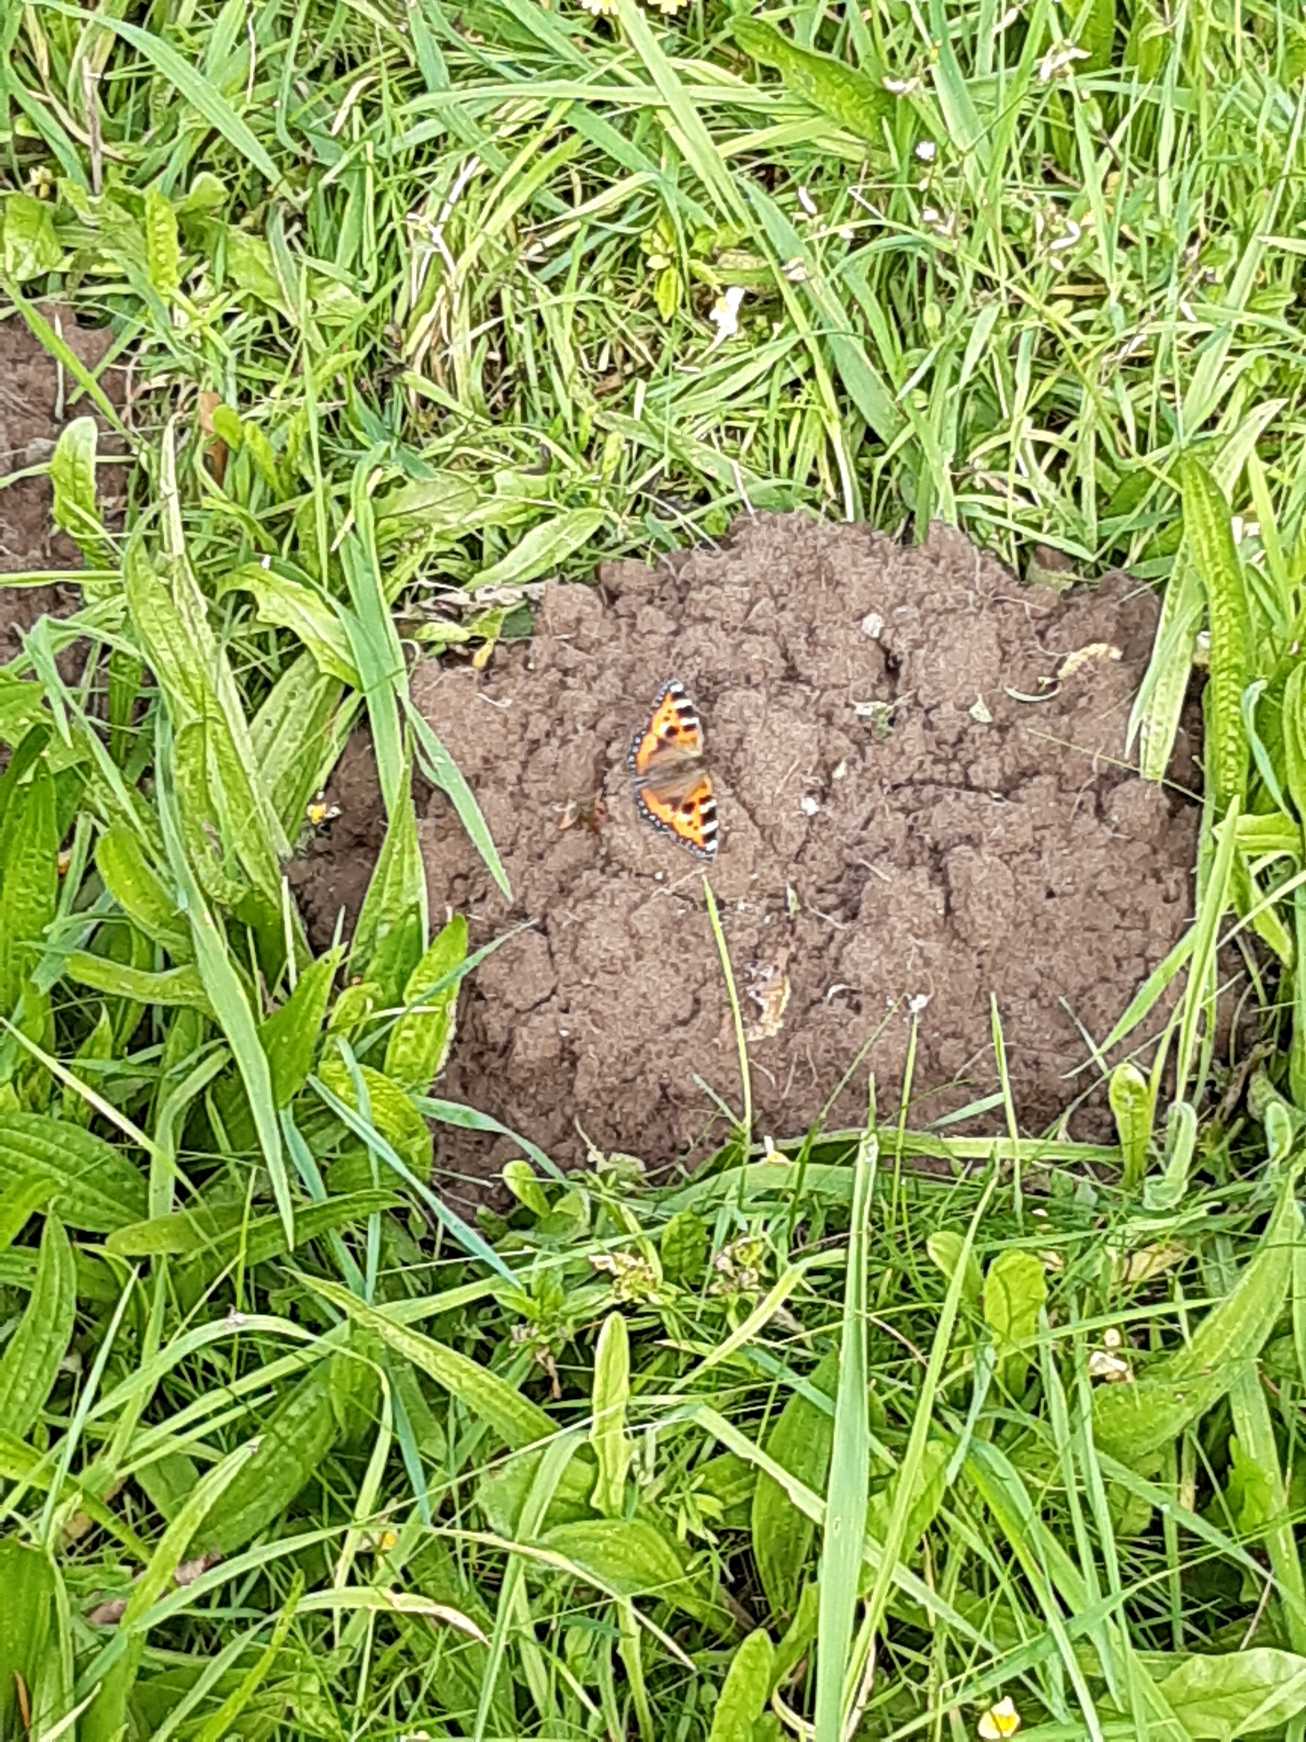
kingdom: Animalia
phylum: Arthropoda
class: Insecta
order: Lepidoptera
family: Nymphalidae
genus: Aglais
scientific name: Aglais urticae
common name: Nældens takvinge
